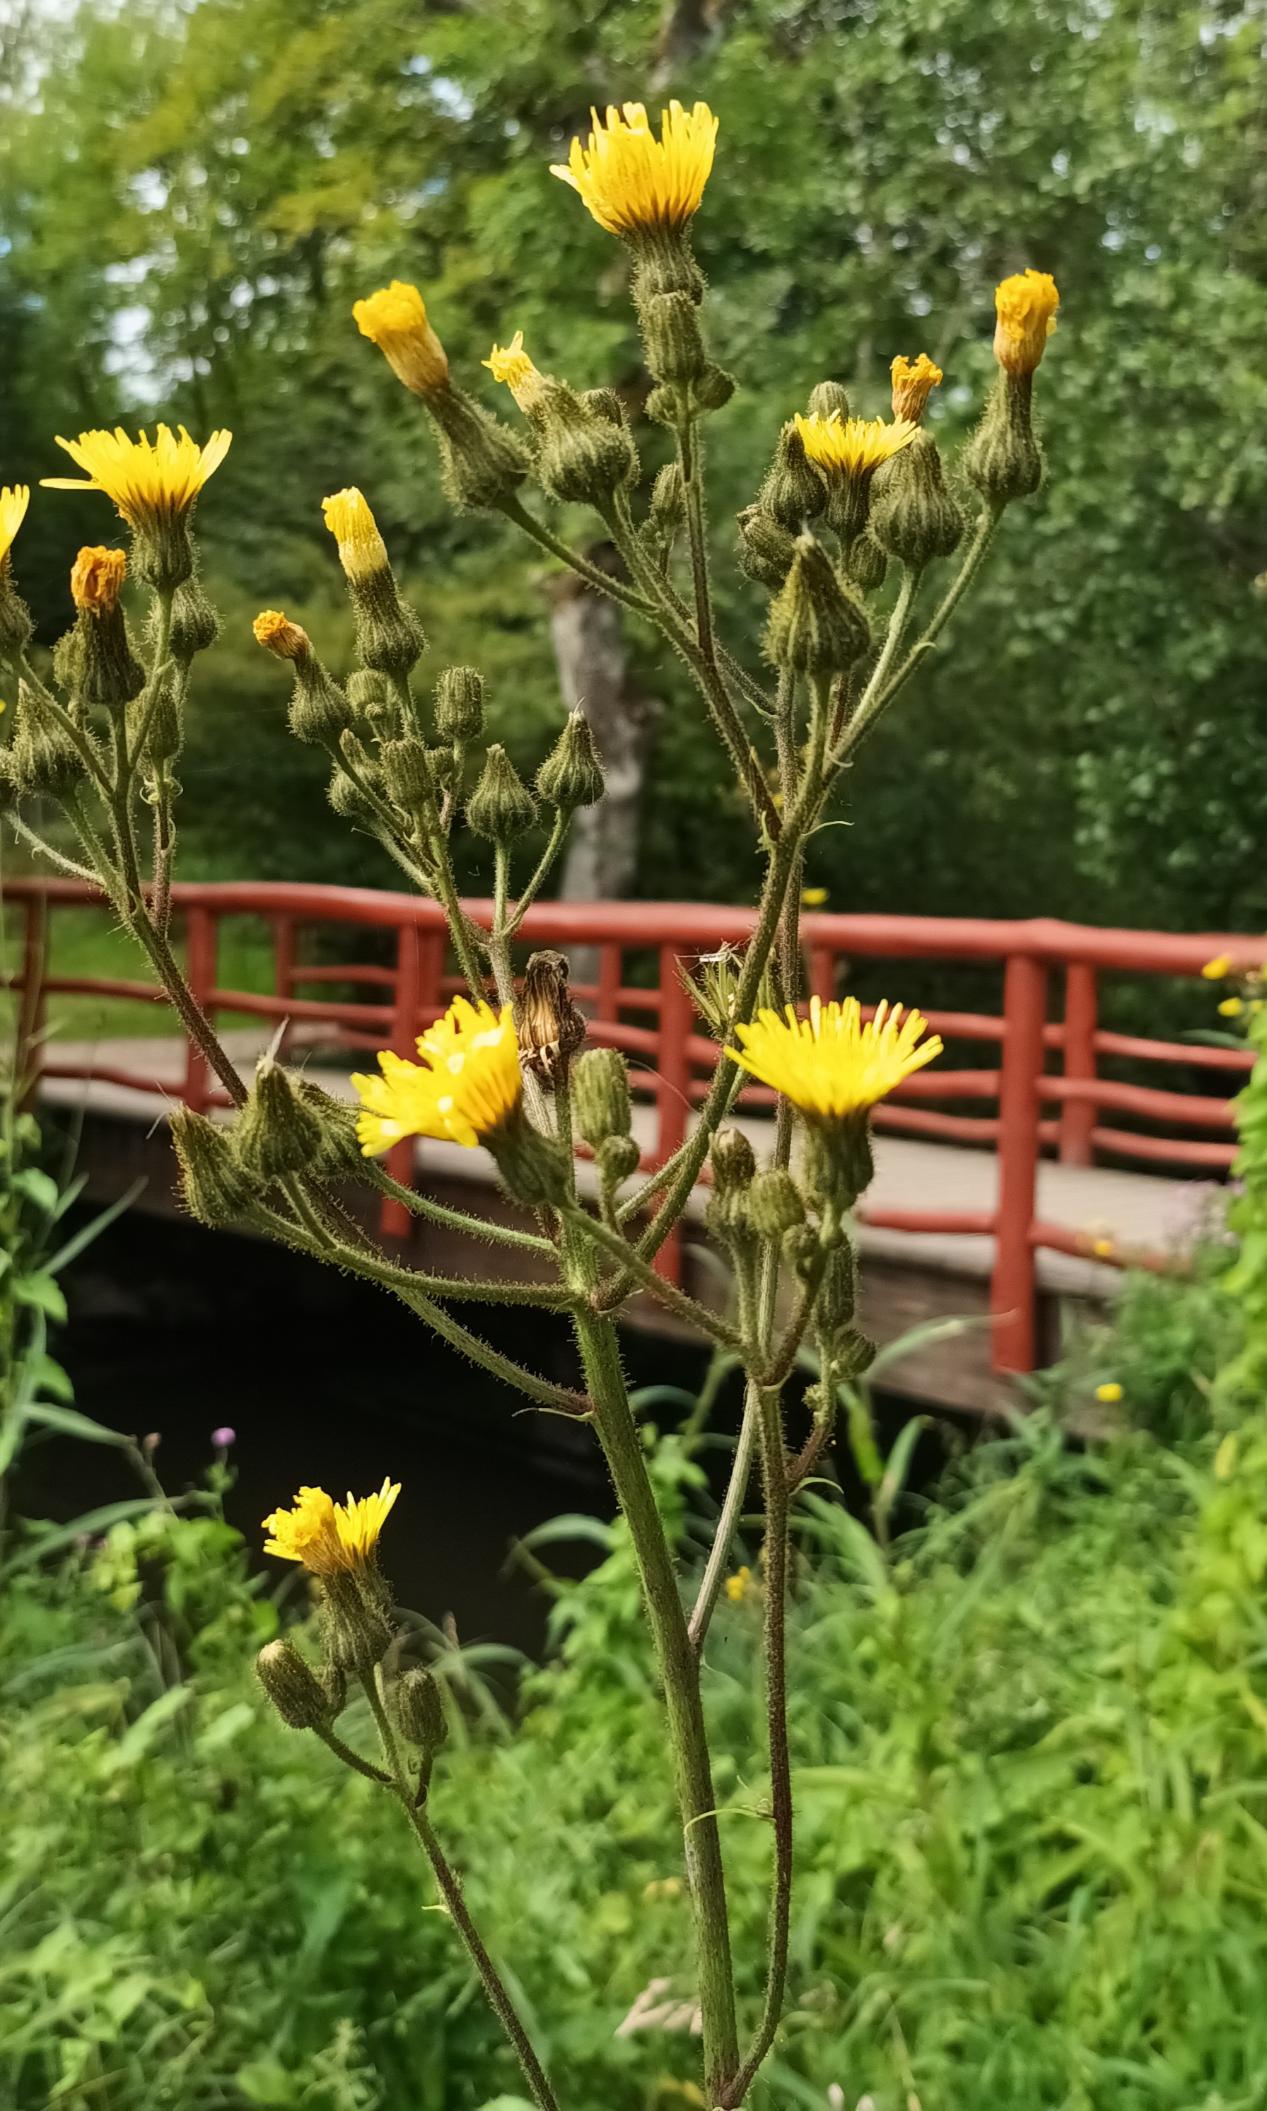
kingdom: Plantae
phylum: Tracheophyta
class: Magnoliopsida
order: Asterales
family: Asteraceae
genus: Sonchus
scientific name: Sonchus palustris
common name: Kær-svinemælk
